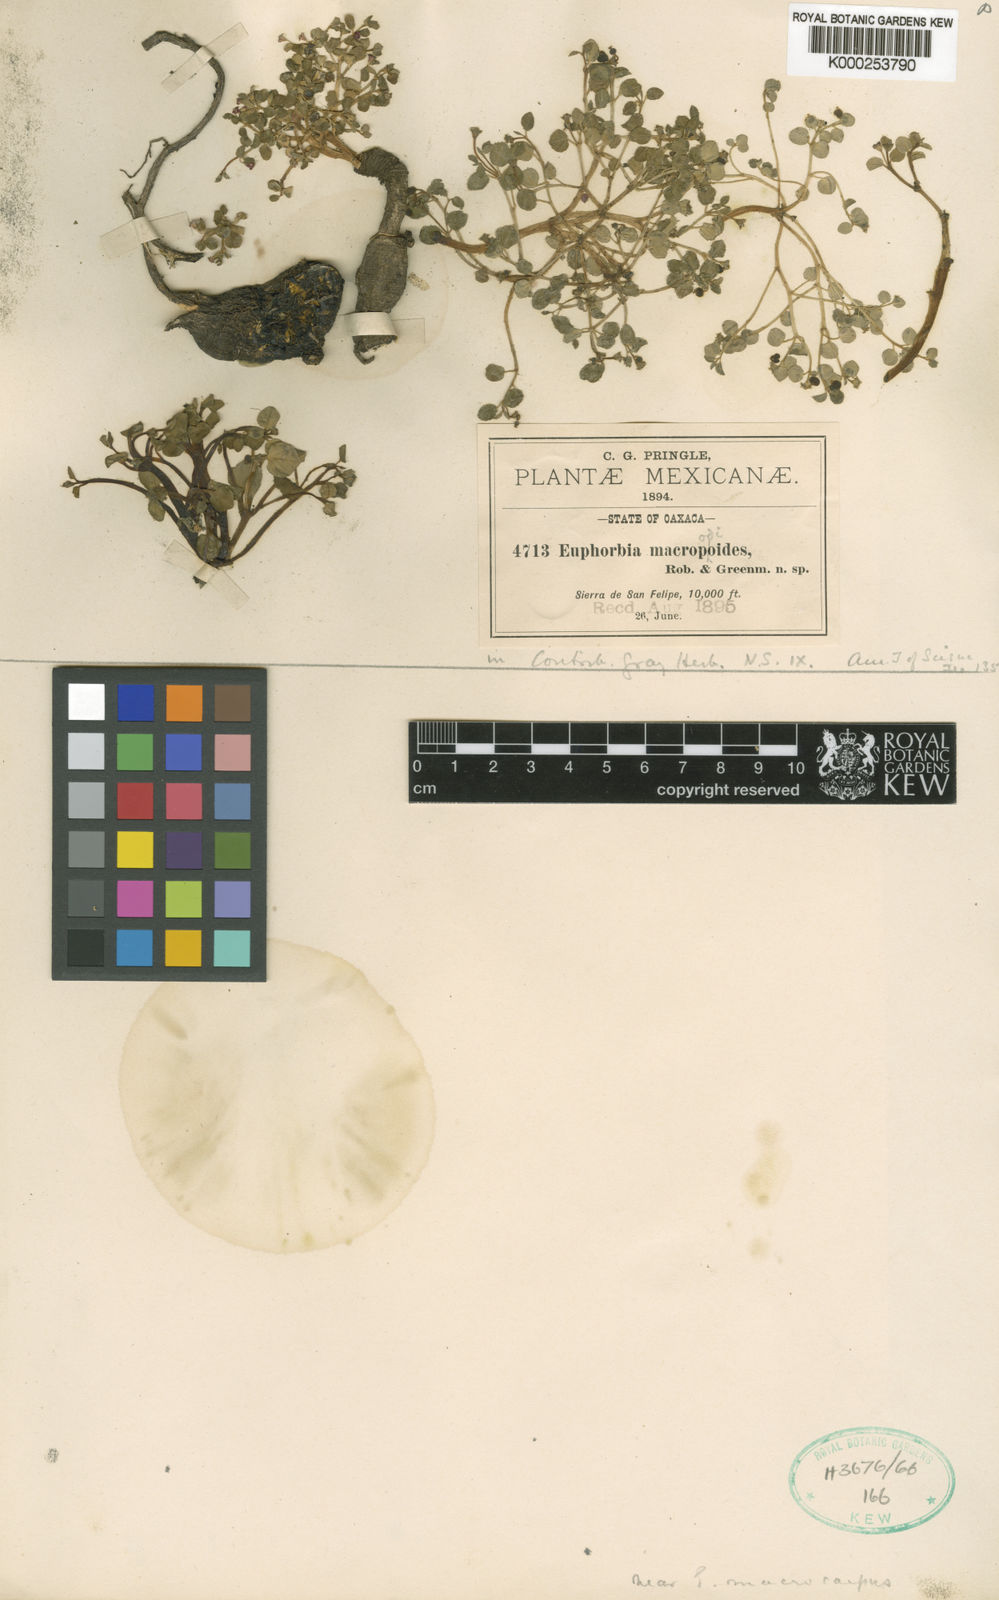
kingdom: Plantae
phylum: Tracheophyta
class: Magnoliopsida
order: Malpighiales
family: Euphorbiaceae
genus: Euphorbia
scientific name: Euphorbia macropodoides
